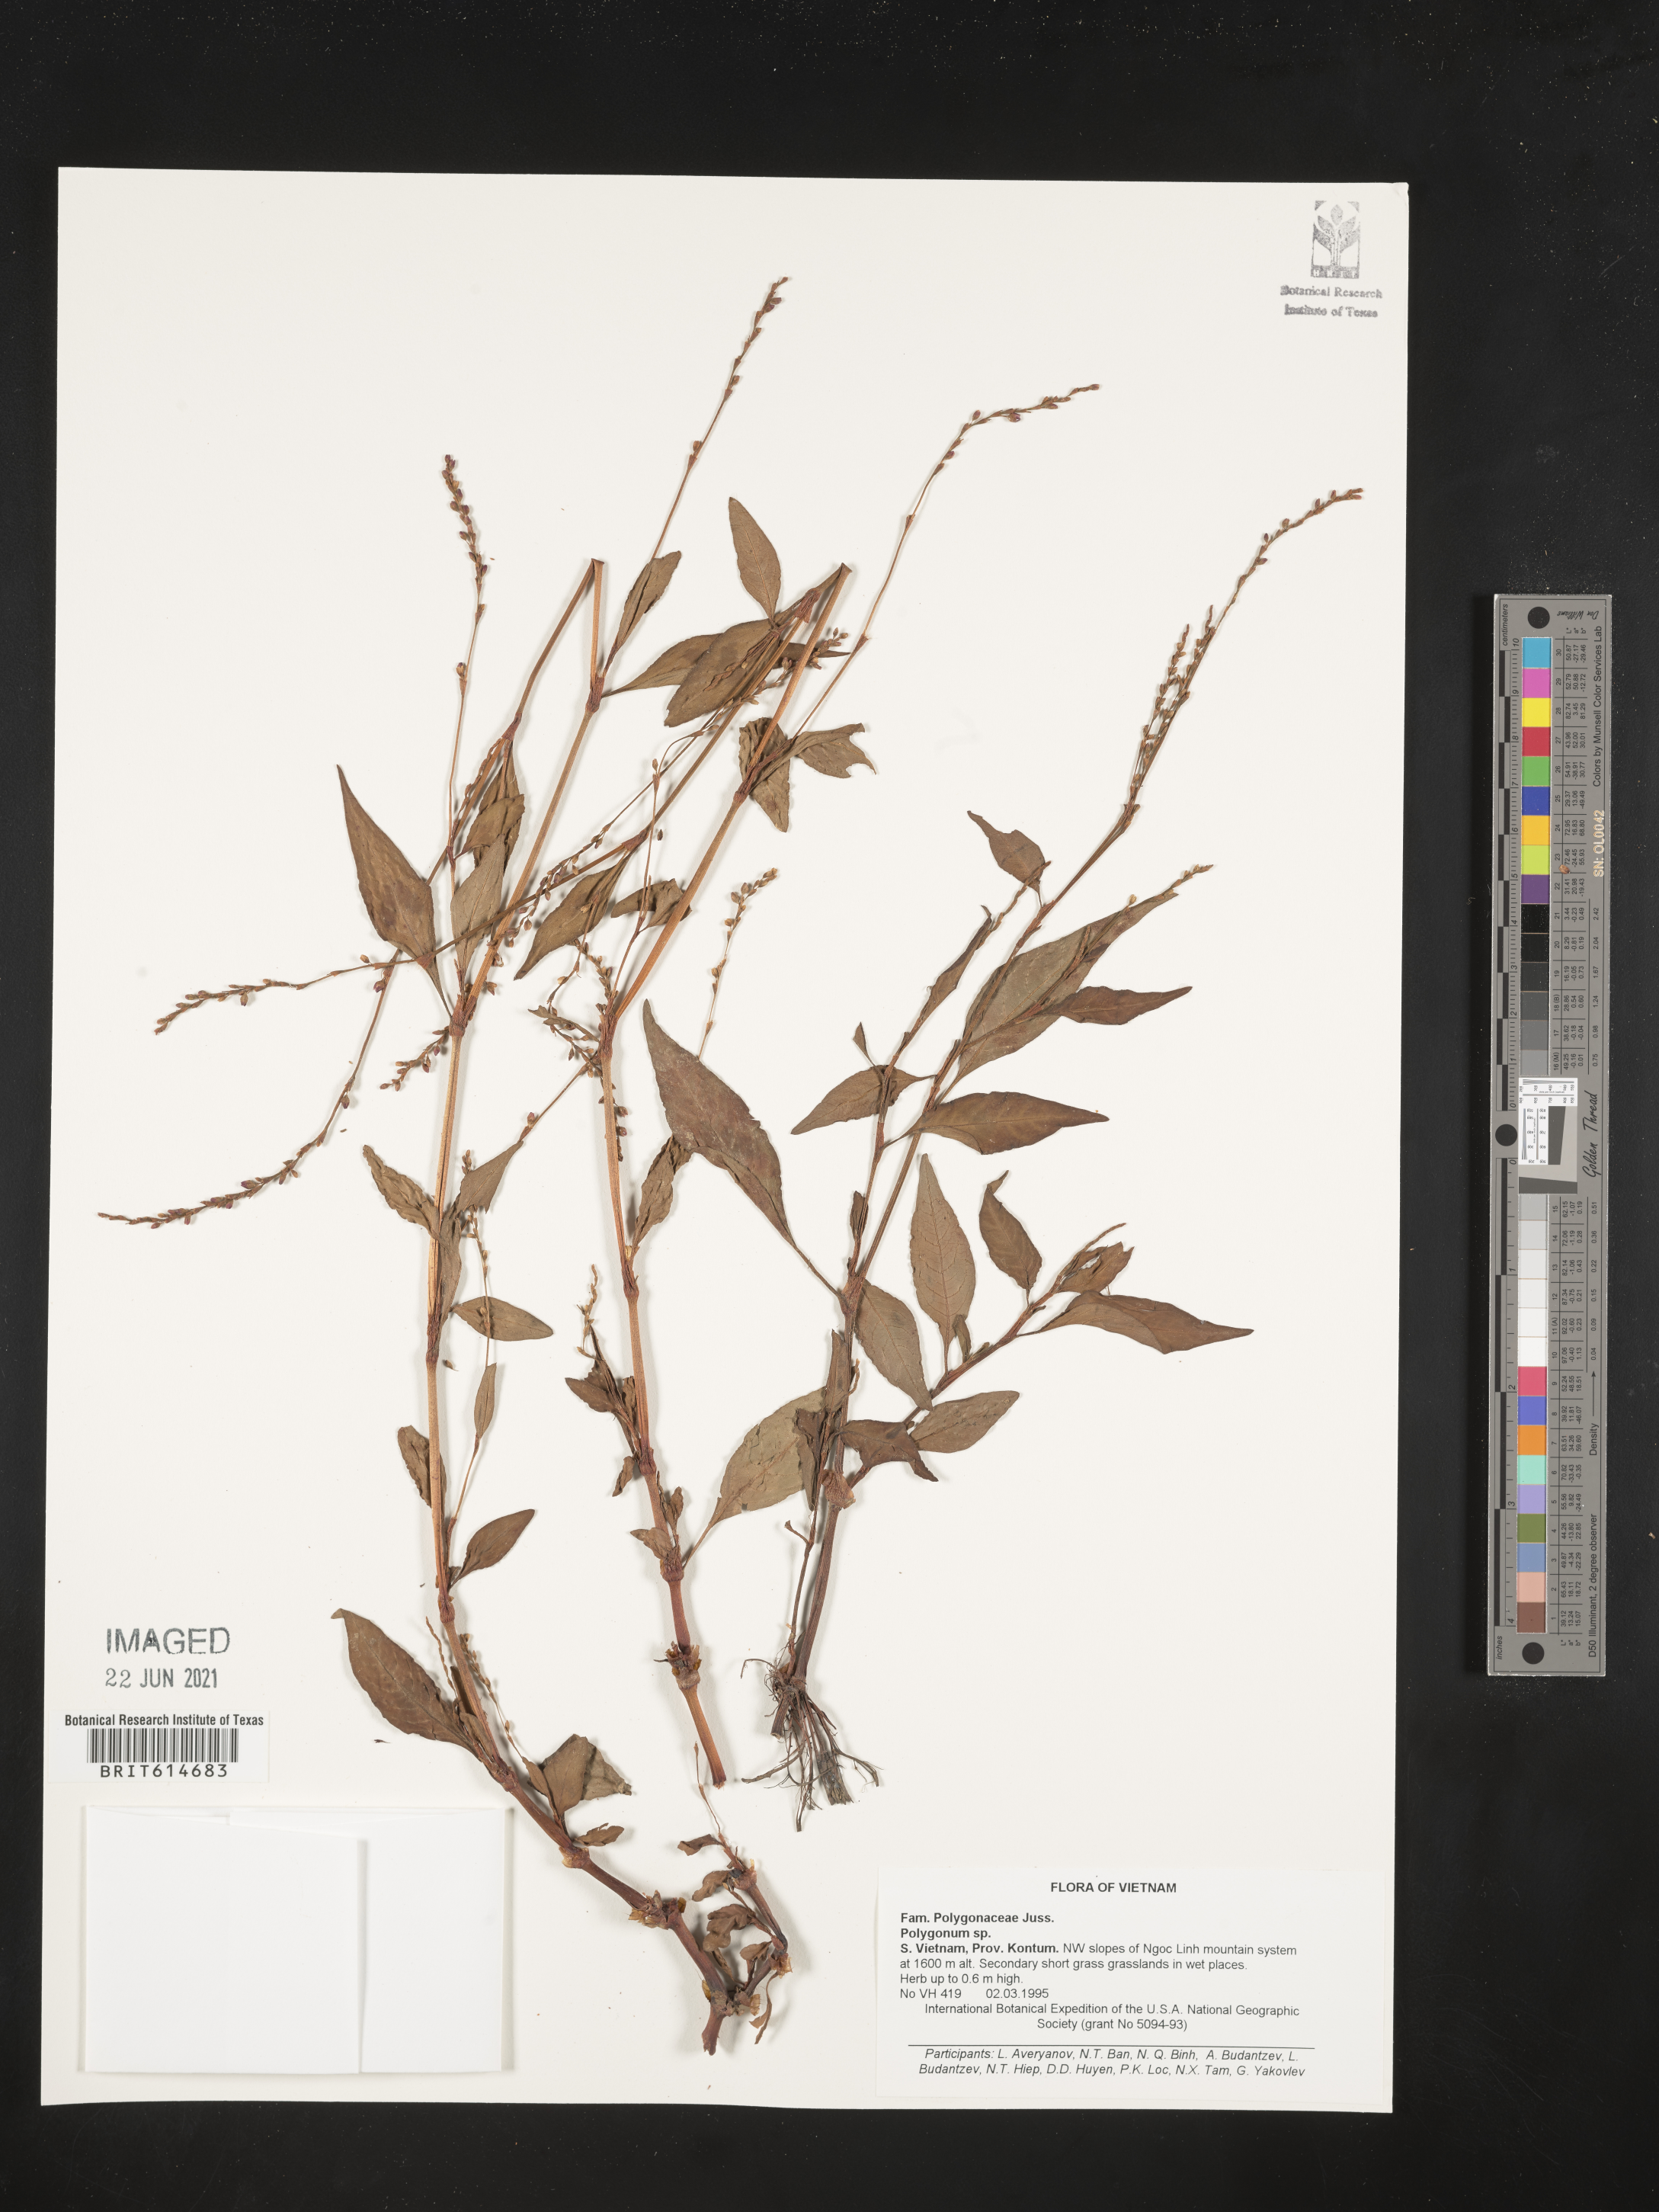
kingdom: Plantae
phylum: Tracheophyta
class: Magnoliopsida
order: Caryophyllales
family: Polygonaceae
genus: Polygonum
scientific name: Polygonum
